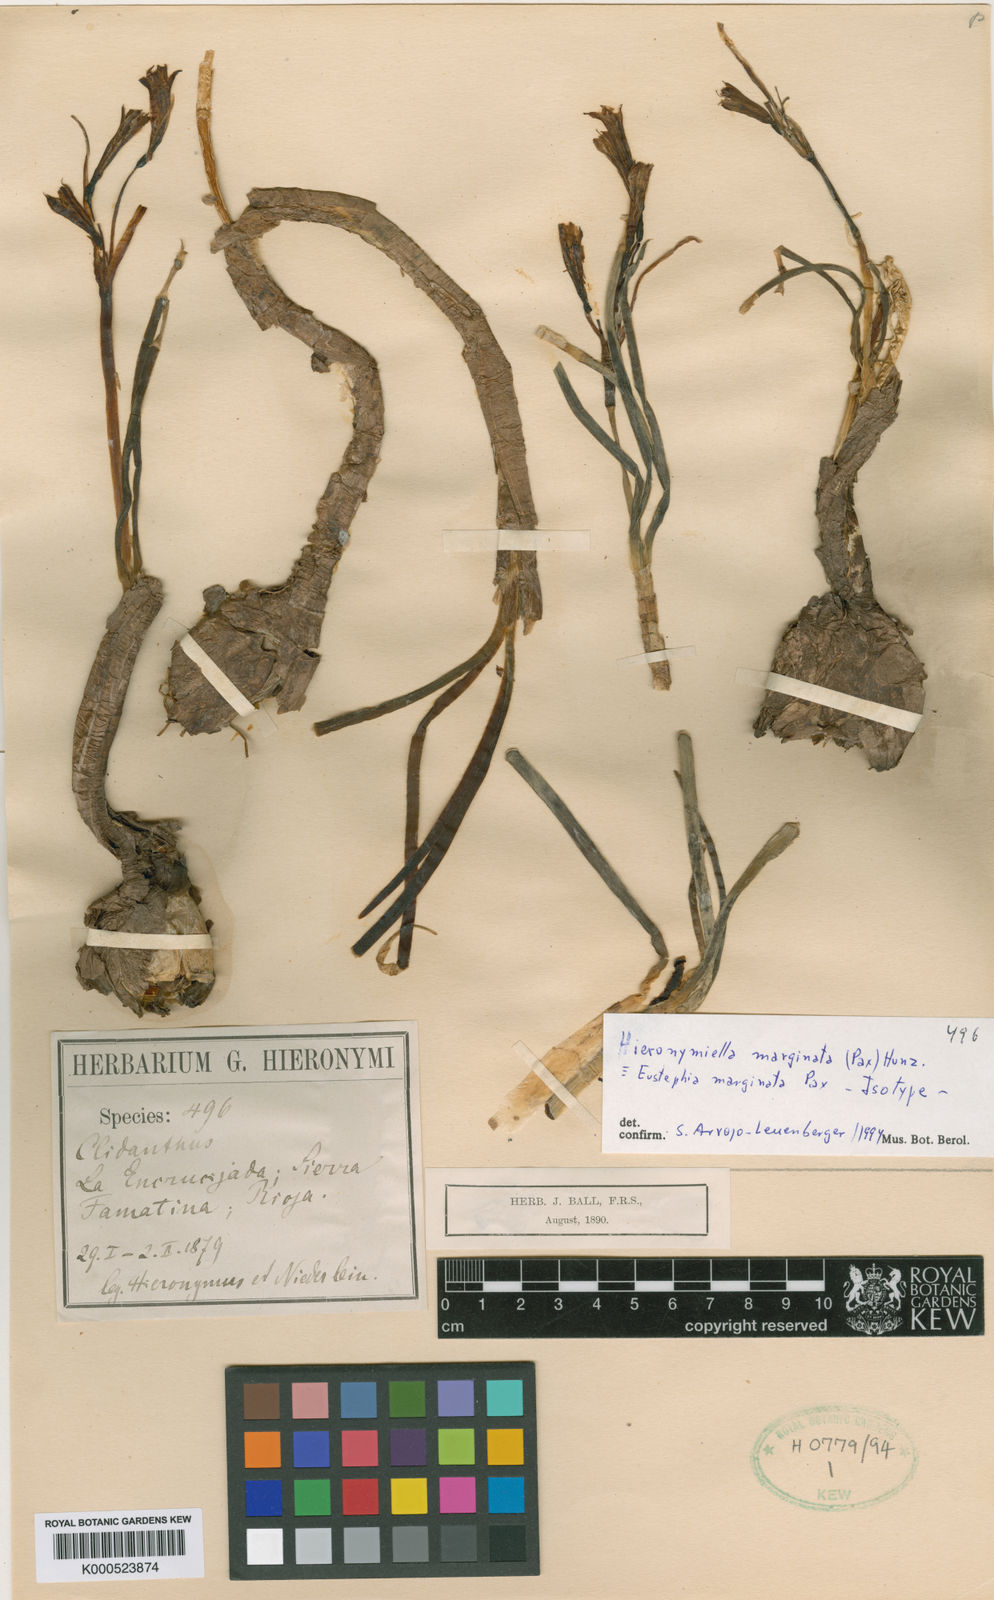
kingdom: Plantae
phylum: Tracheophyta
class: Liliopsida
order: Asparagales
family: Amaryllidaceae
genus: Hieronymiella
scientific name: Hieronymiella argentina
